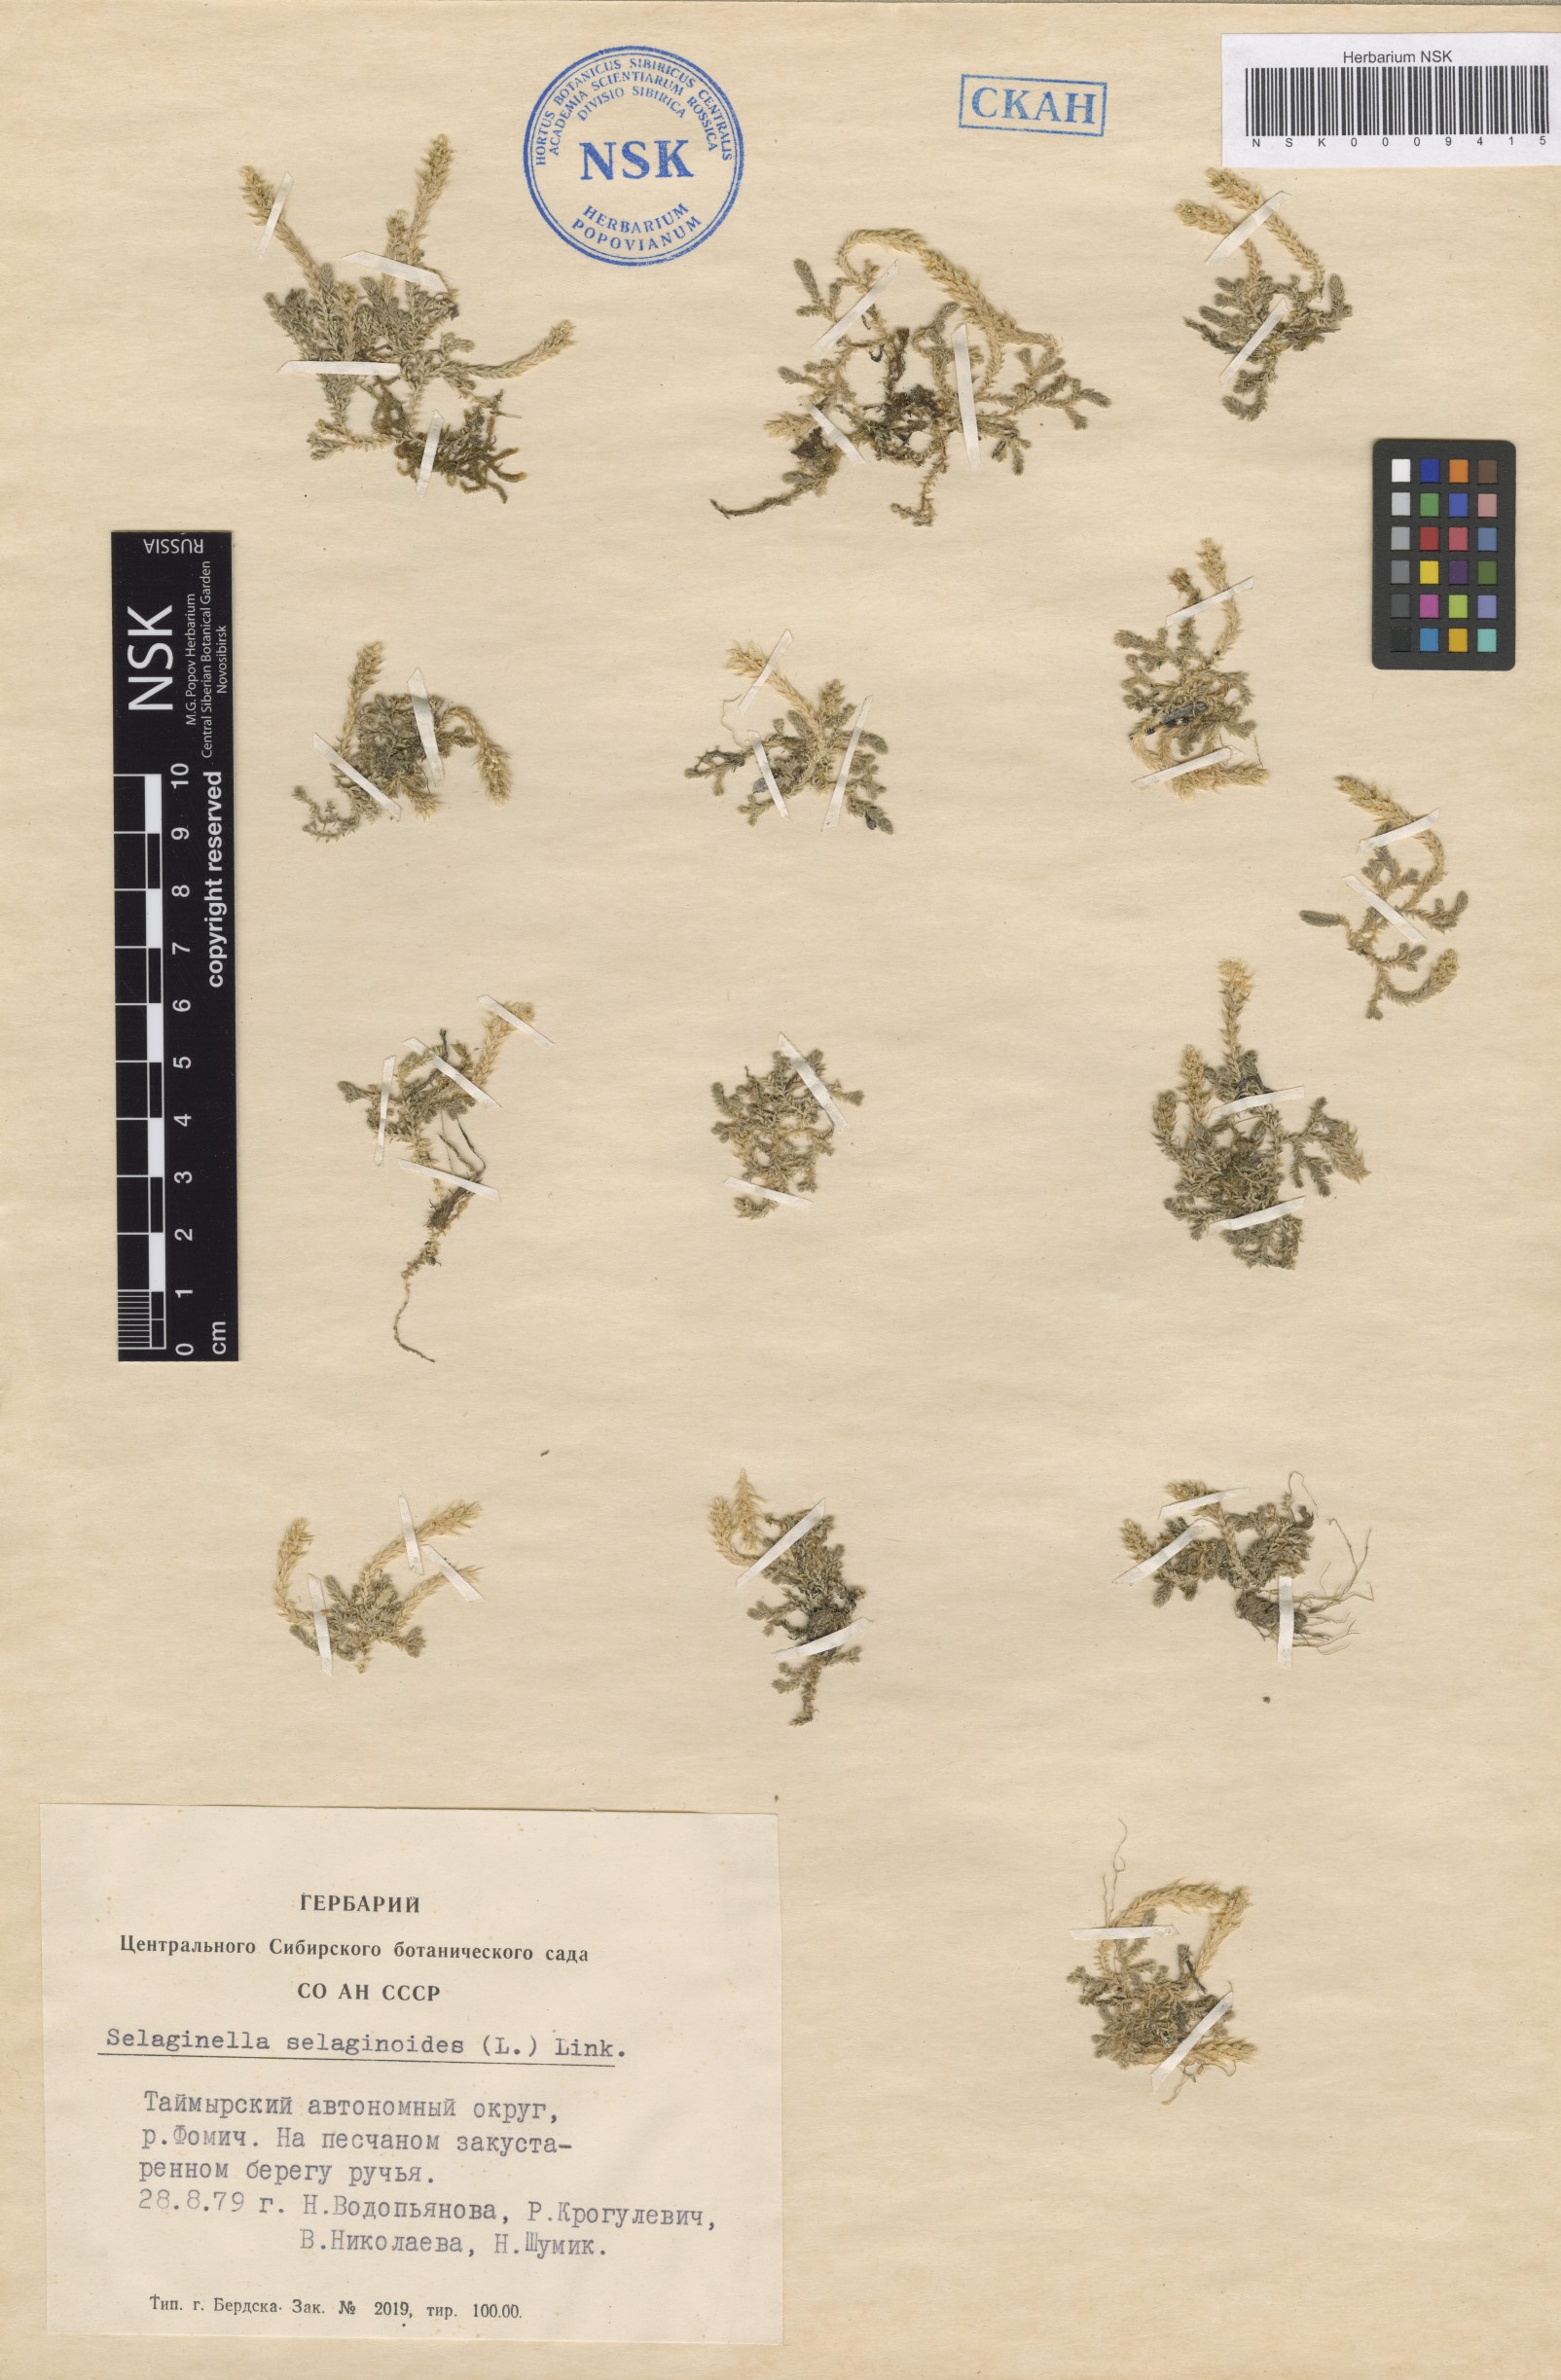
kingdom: Plantae
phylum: Tracheophyta
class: Lycopodiopsida
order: Selaginellales
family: Selaginellaceae
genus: Selaginella
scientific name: Selaginella selaginoides
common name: Prickly mountain-moss
